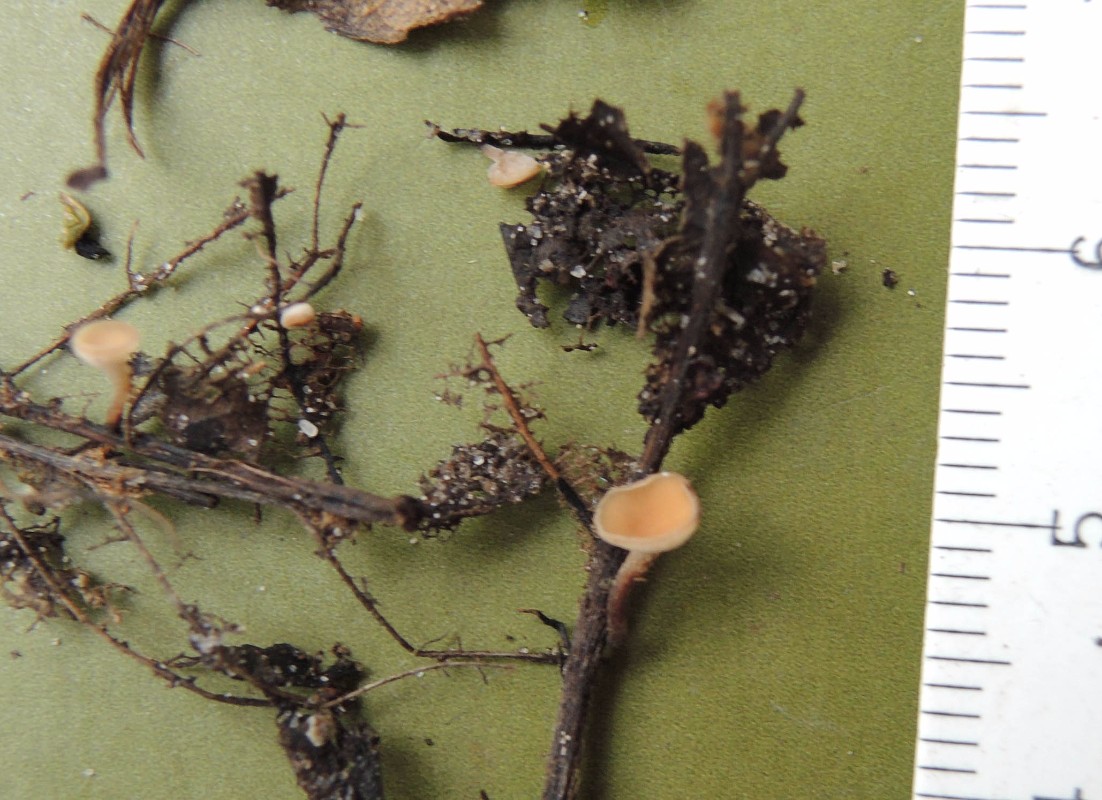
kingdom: Fungi
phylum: Ascomycota
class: Leotiomycetes
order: Helotiales
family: Rutstroemiaceae
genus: Rutstroemia
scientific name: Rutstroemia conformata
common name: elleblads-brunskive
